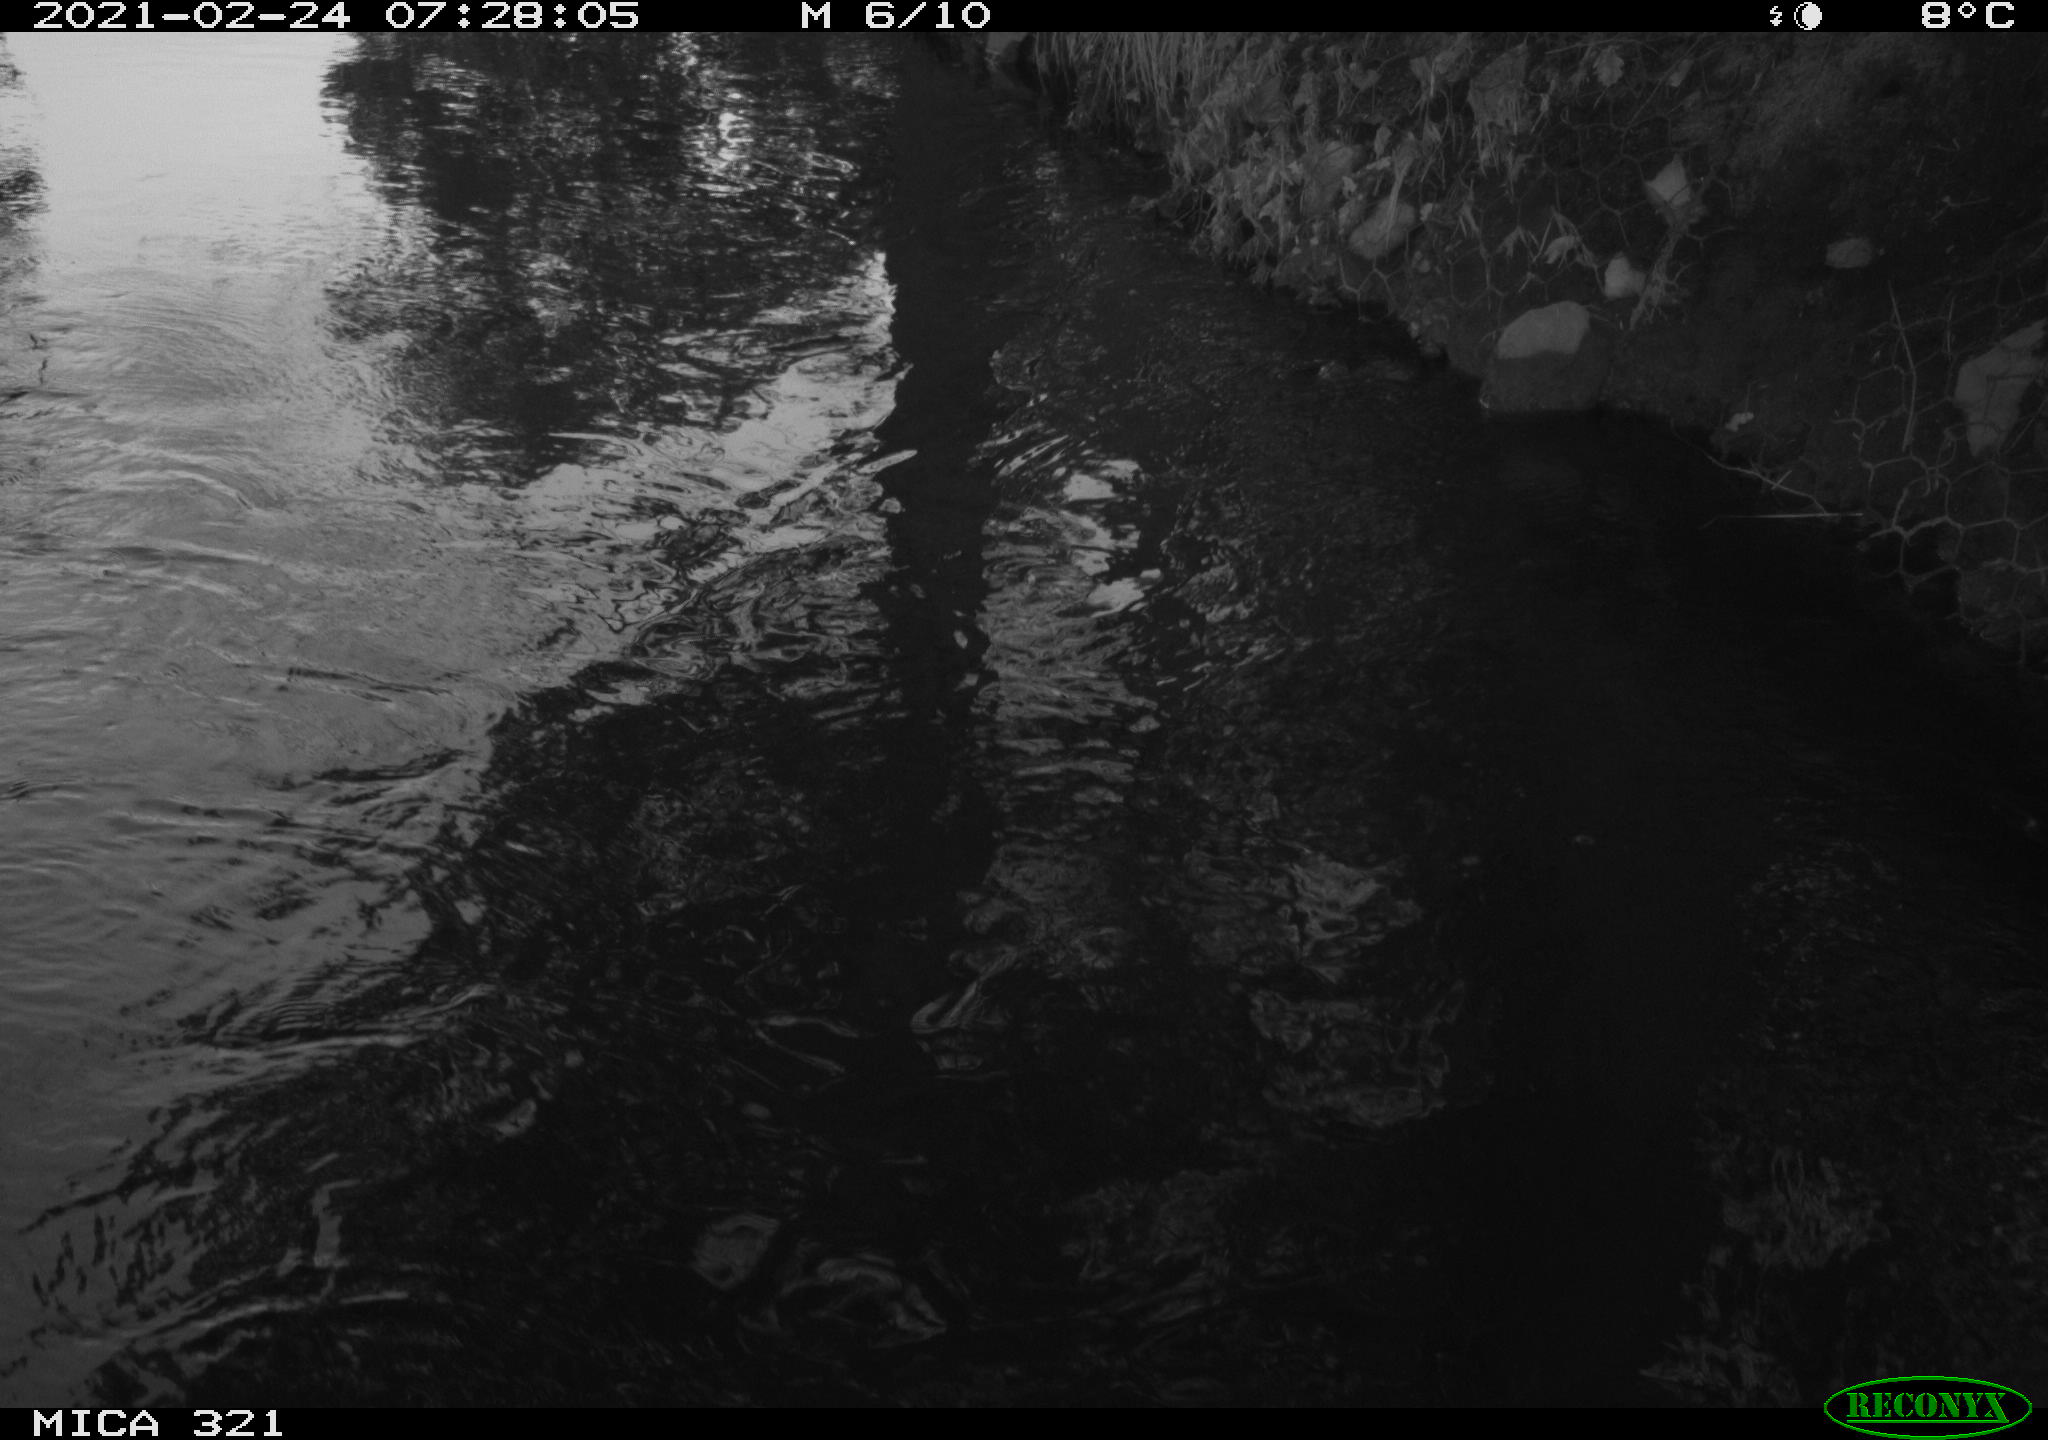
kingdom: Animalia
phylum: Chordata
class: Aves
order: Anseriformes
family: Anatidae
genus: Anas
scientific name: Anas platyrhynchos
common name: Mallard
